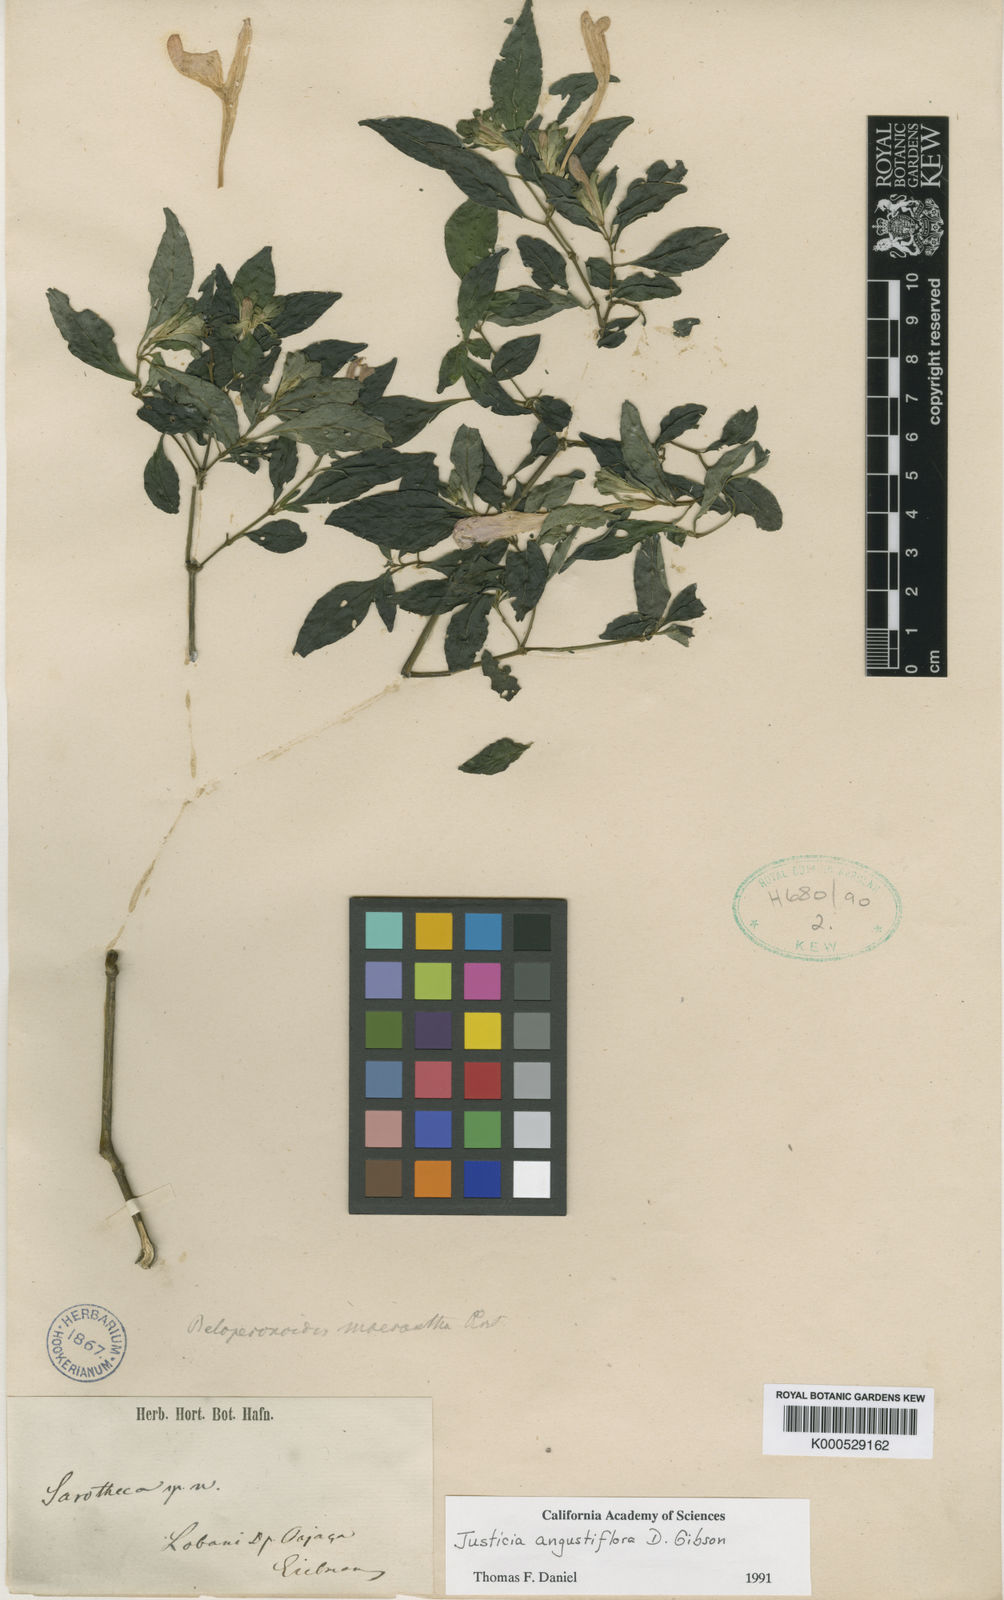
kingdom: Plantae
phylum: Tracheophyta
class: Magnoliopsida
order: Lamiales
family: Acanthaceae
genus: Justicia
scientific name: Justicia angustiflora
